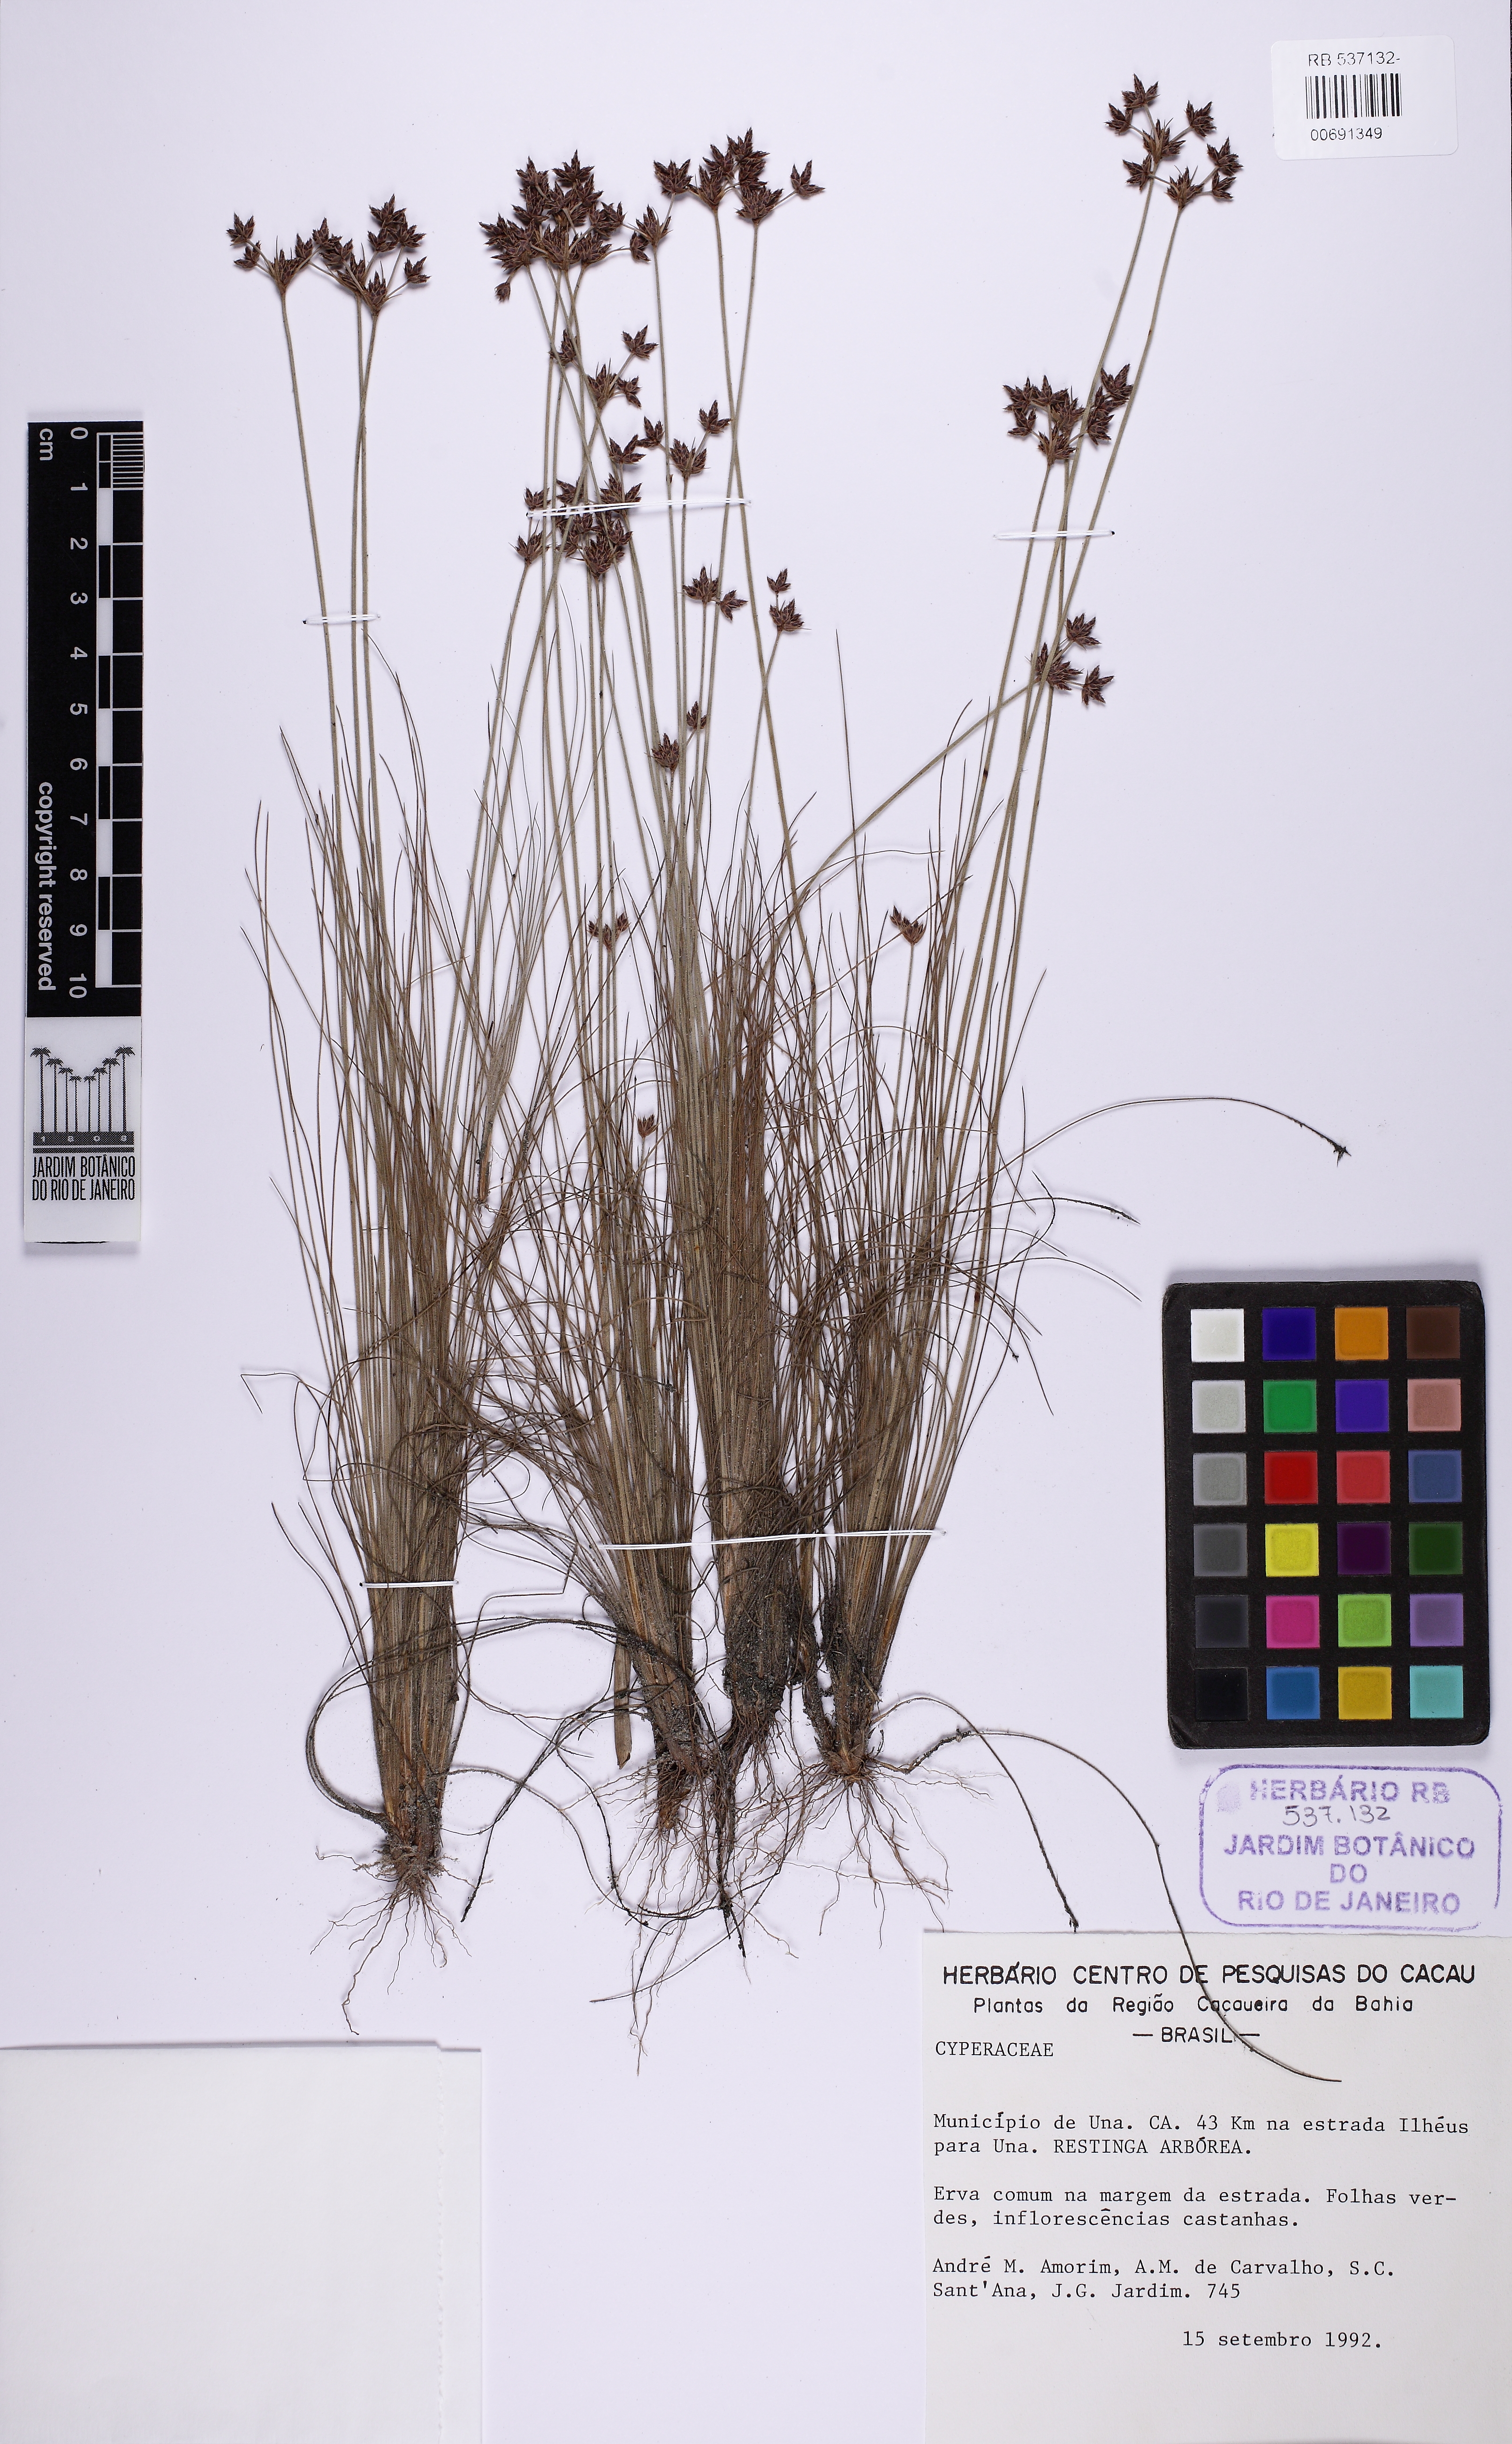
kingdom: Plantae
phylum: Tracheophyta
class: Liliopsida
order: Poales
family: Cyperaceae
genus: Bulbostylis
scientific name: Bulbostylis vestita
